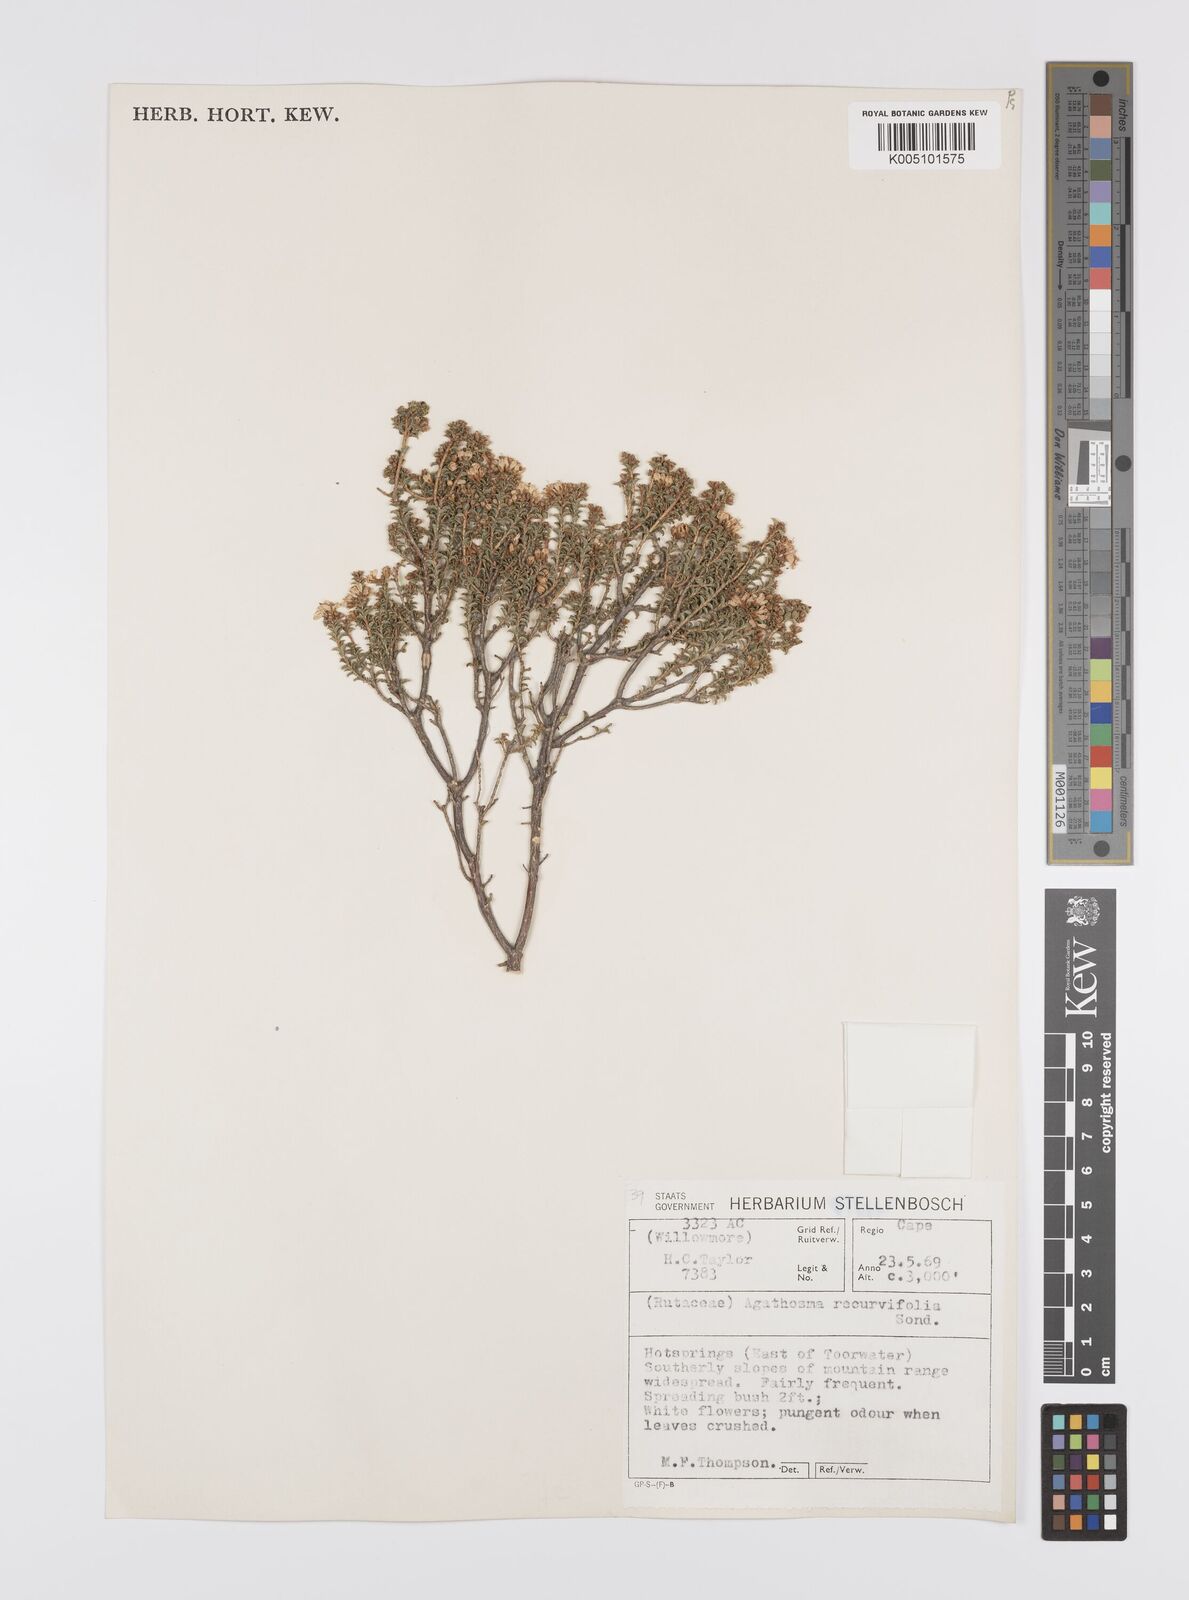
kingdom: Plantae
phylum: Tracheophyta
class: Magnoliopsida
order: Sapindales
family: Rutaceae
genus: Agathosma
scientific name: Agathosma recurvifolia
